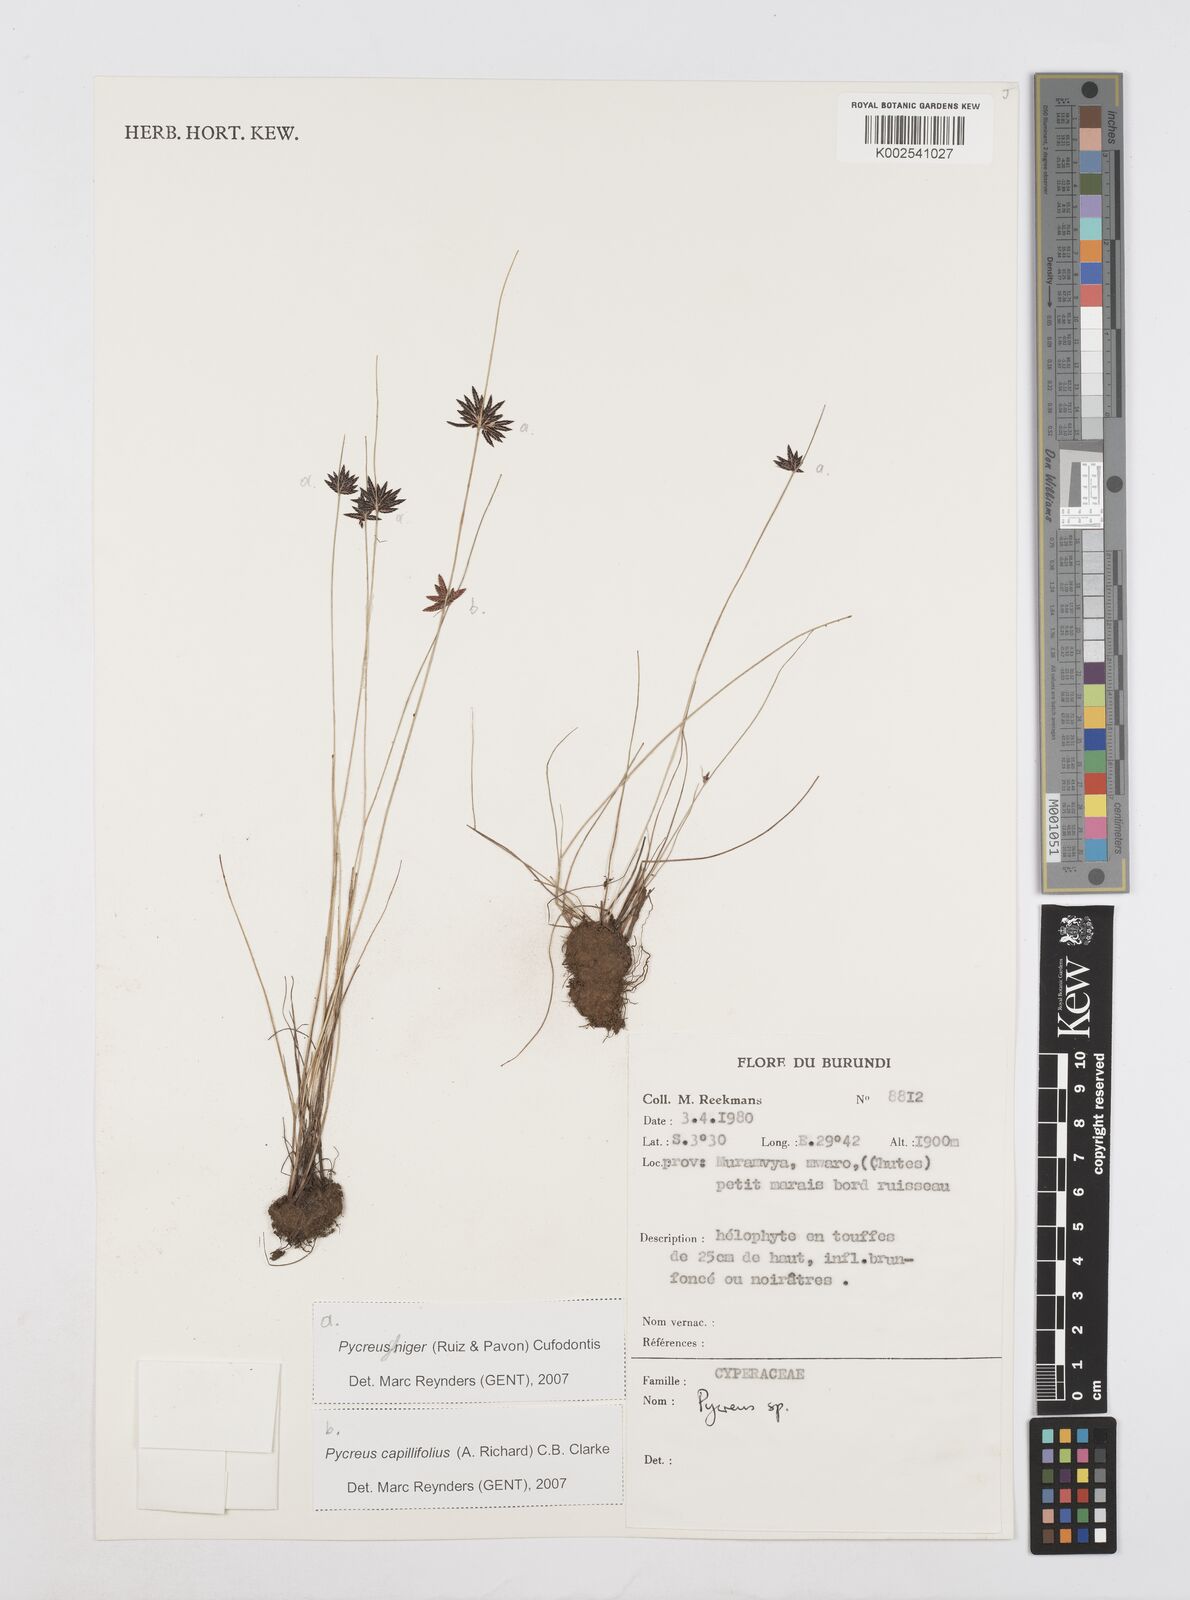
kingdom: Plantae
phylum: Tracheophyta
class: Liliopsida
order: Poales
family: Cyperaceae
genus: Cyperus
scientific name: Cyperus
